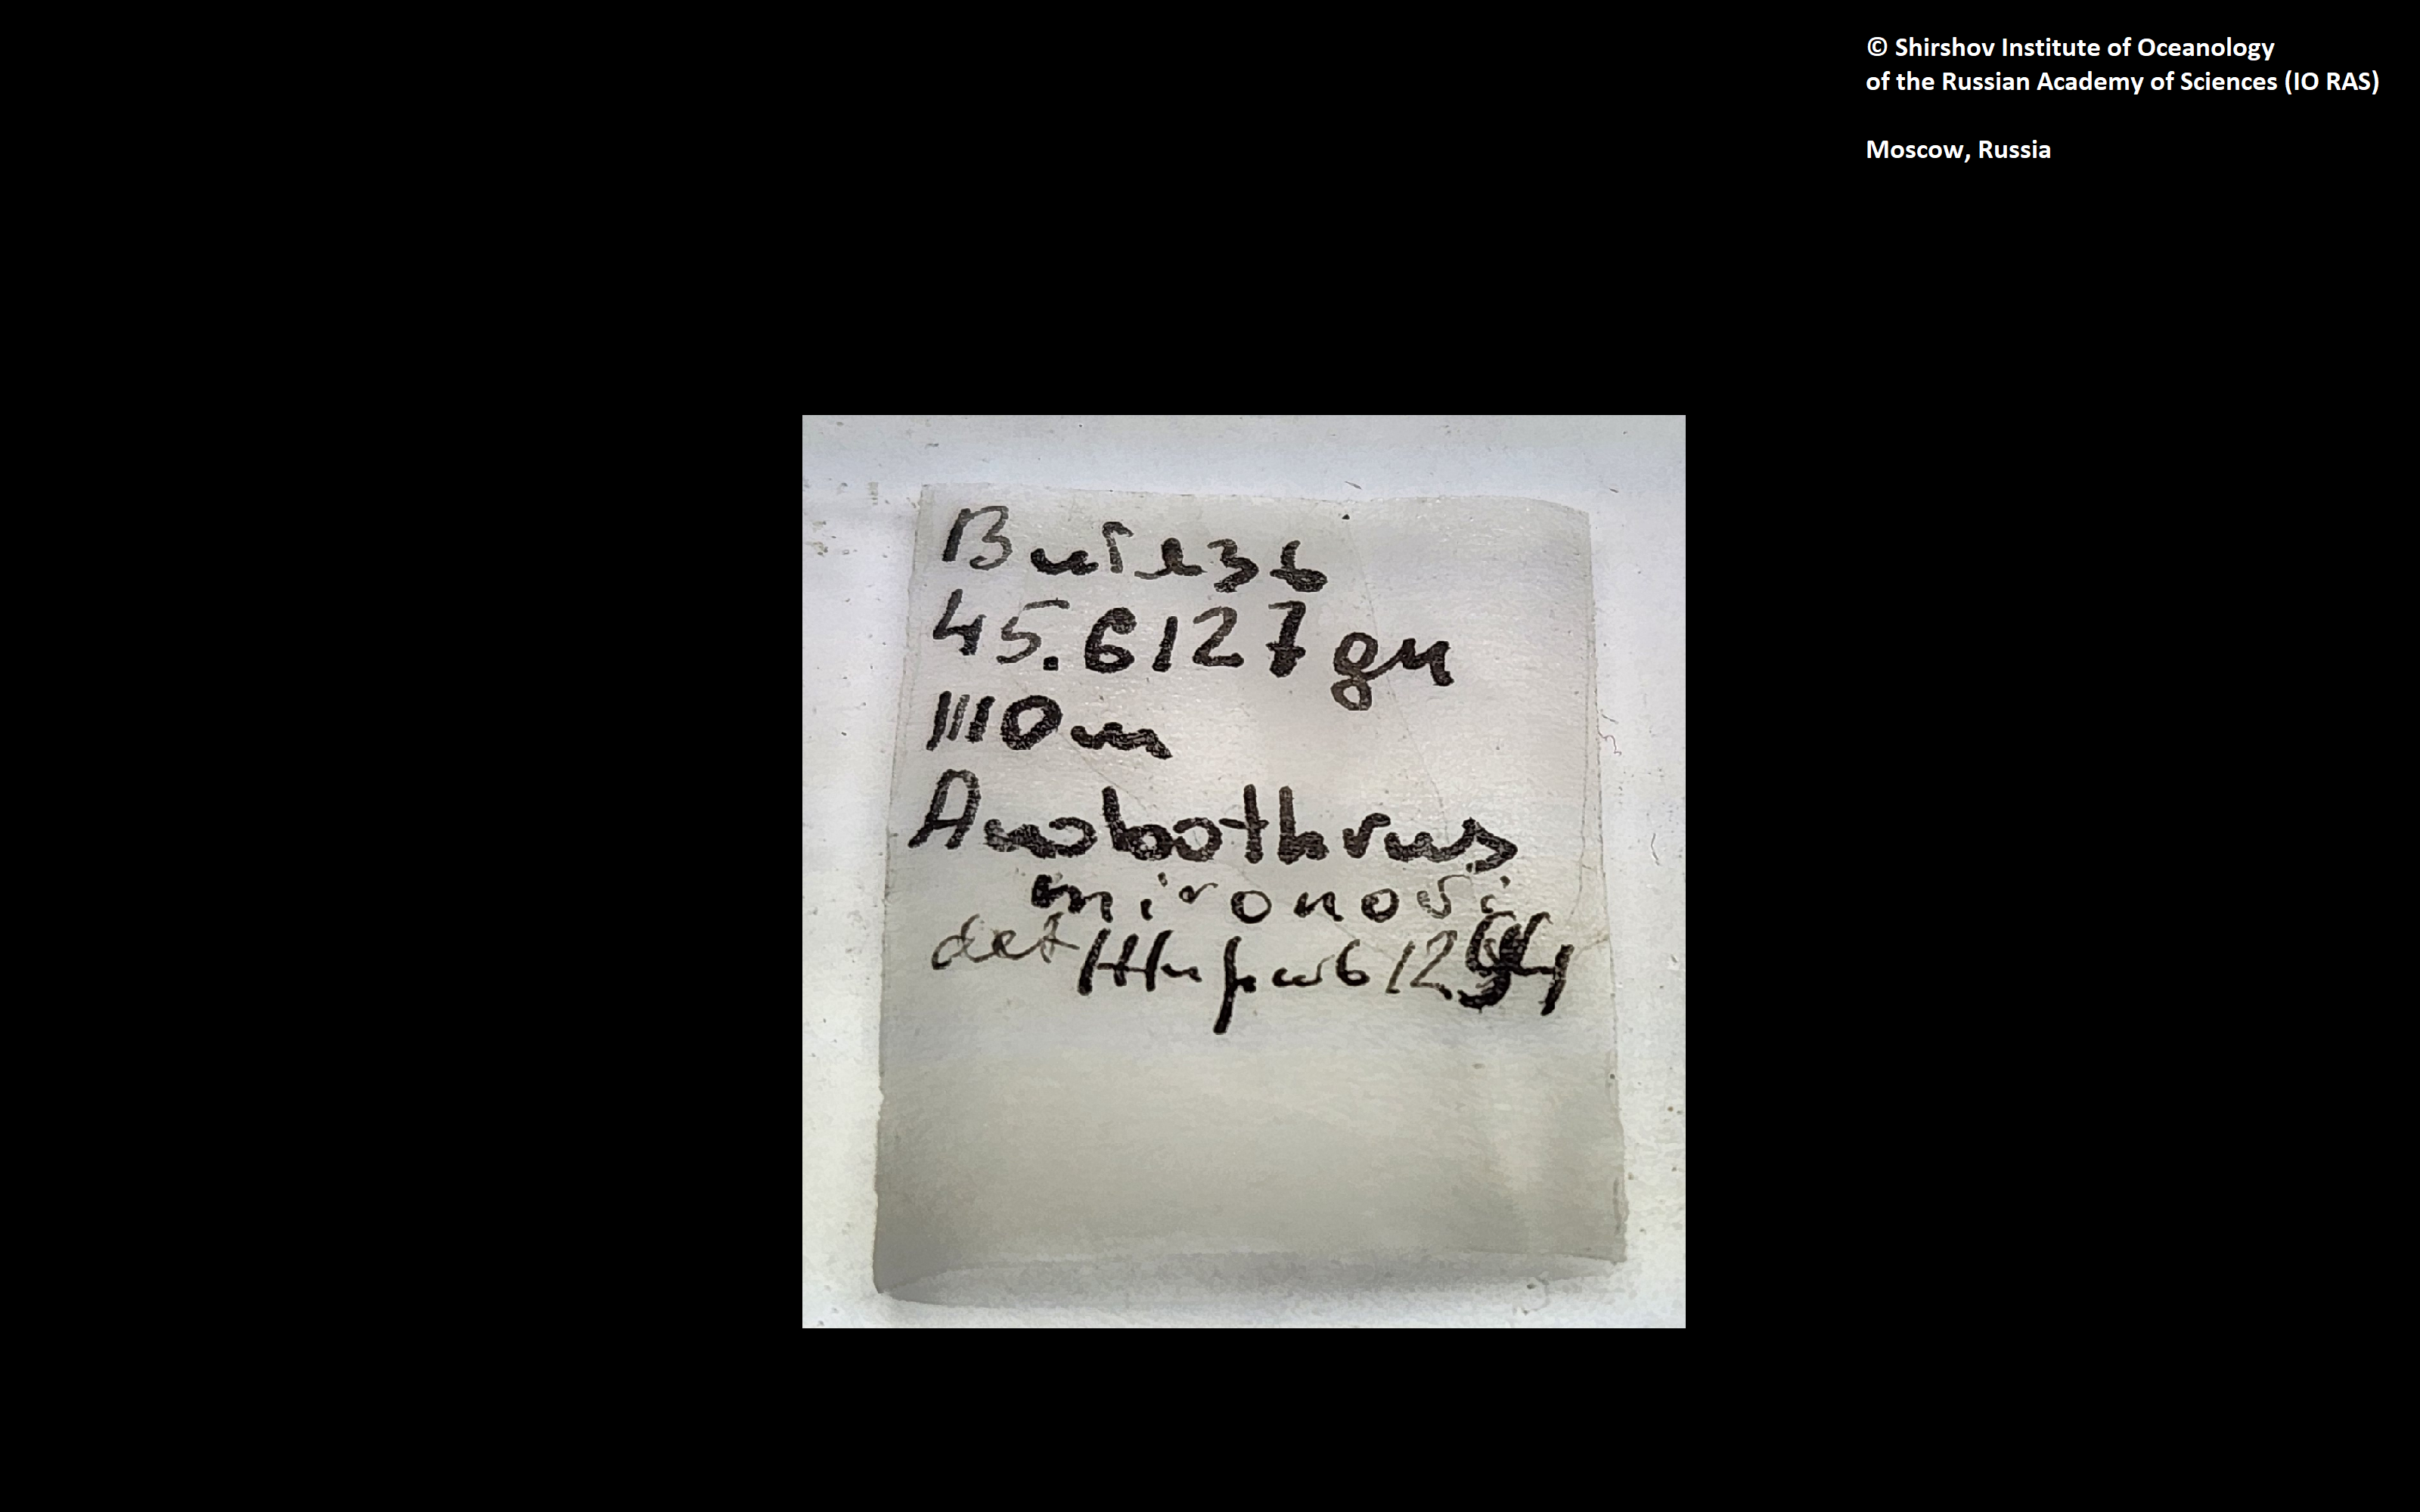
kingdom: Animalia
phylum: Annelida
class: Polychaeta
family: Ampharetidae
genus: Anobothrus
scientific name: Anobothrus mironovi
